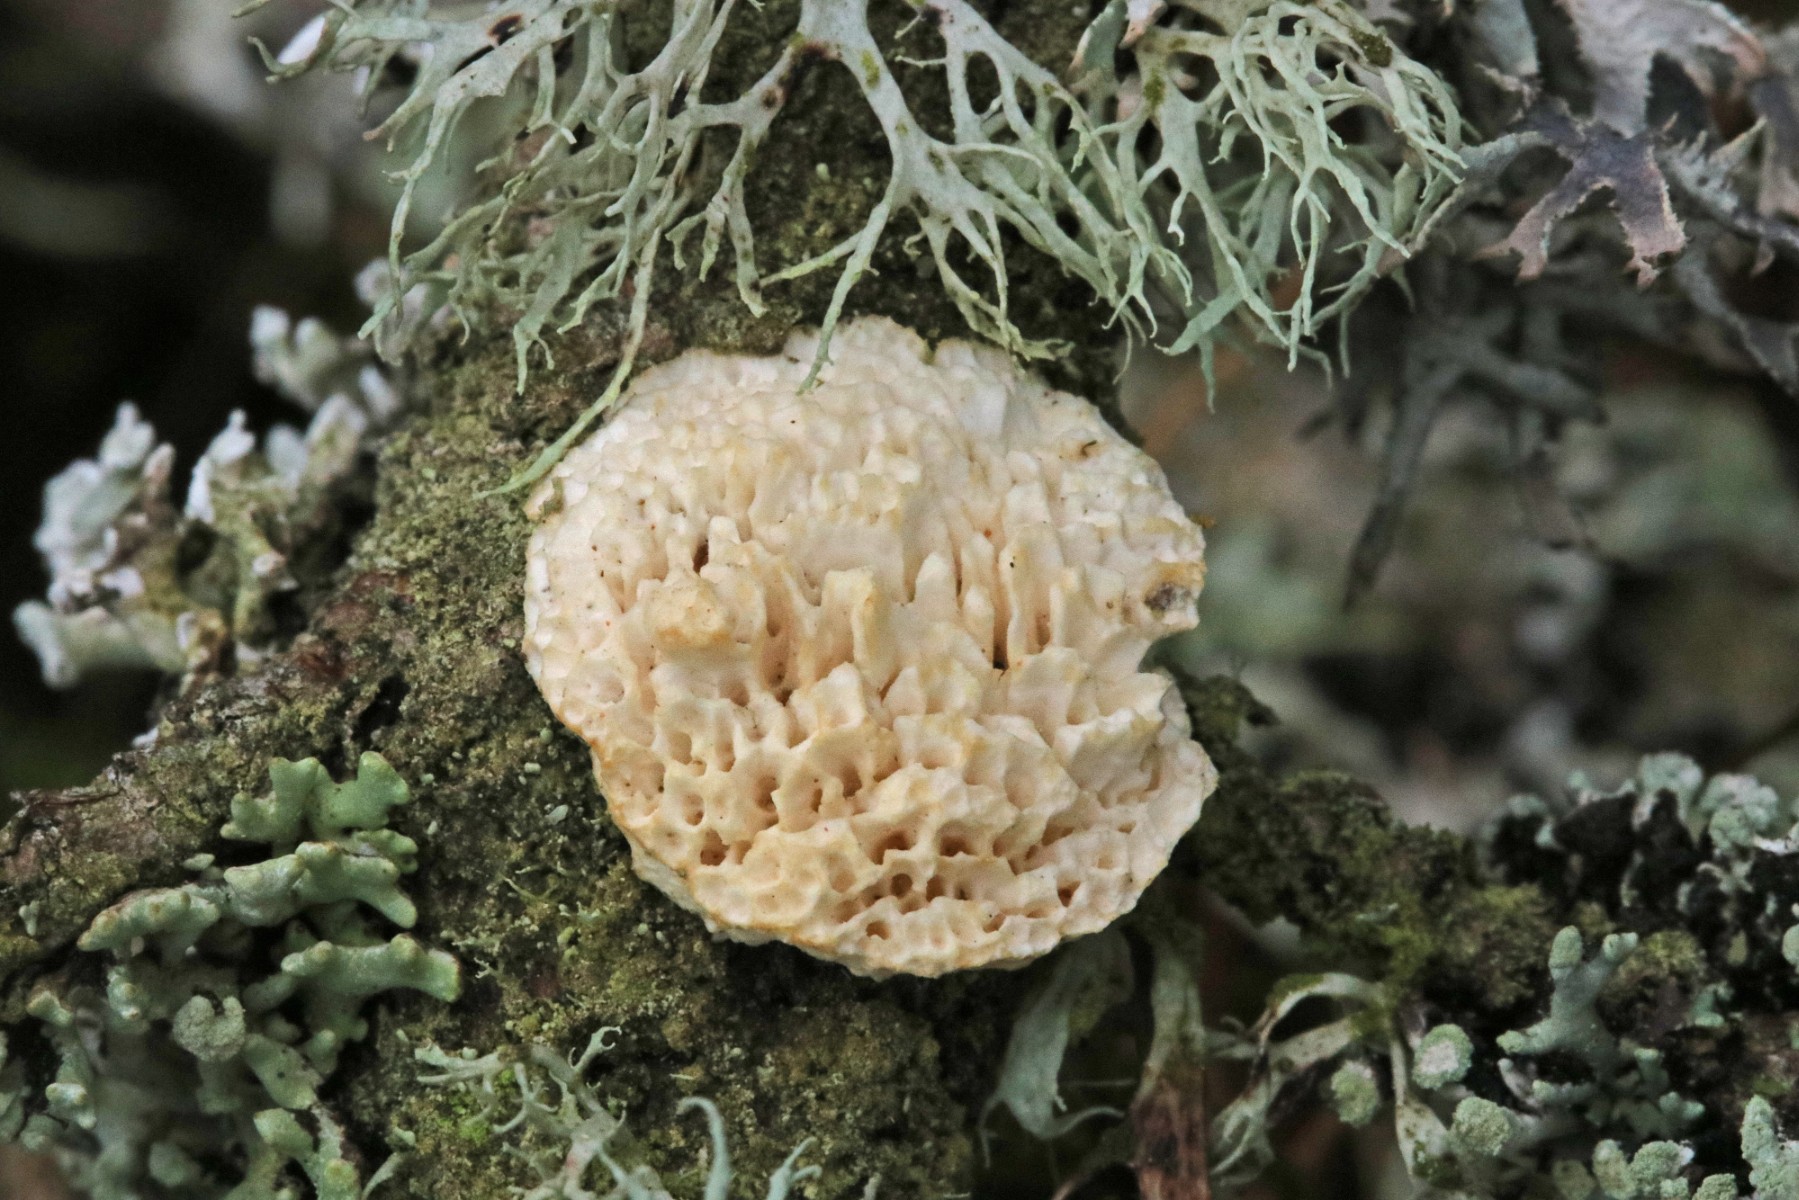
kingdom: Fungi
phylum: Basidiomycota
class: Agaricomycetes
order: Polyporales
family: Fomitopsidaceae
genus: Fomitopsis
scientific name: Fomitopsis
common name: fyrre-skiveporesvamp
